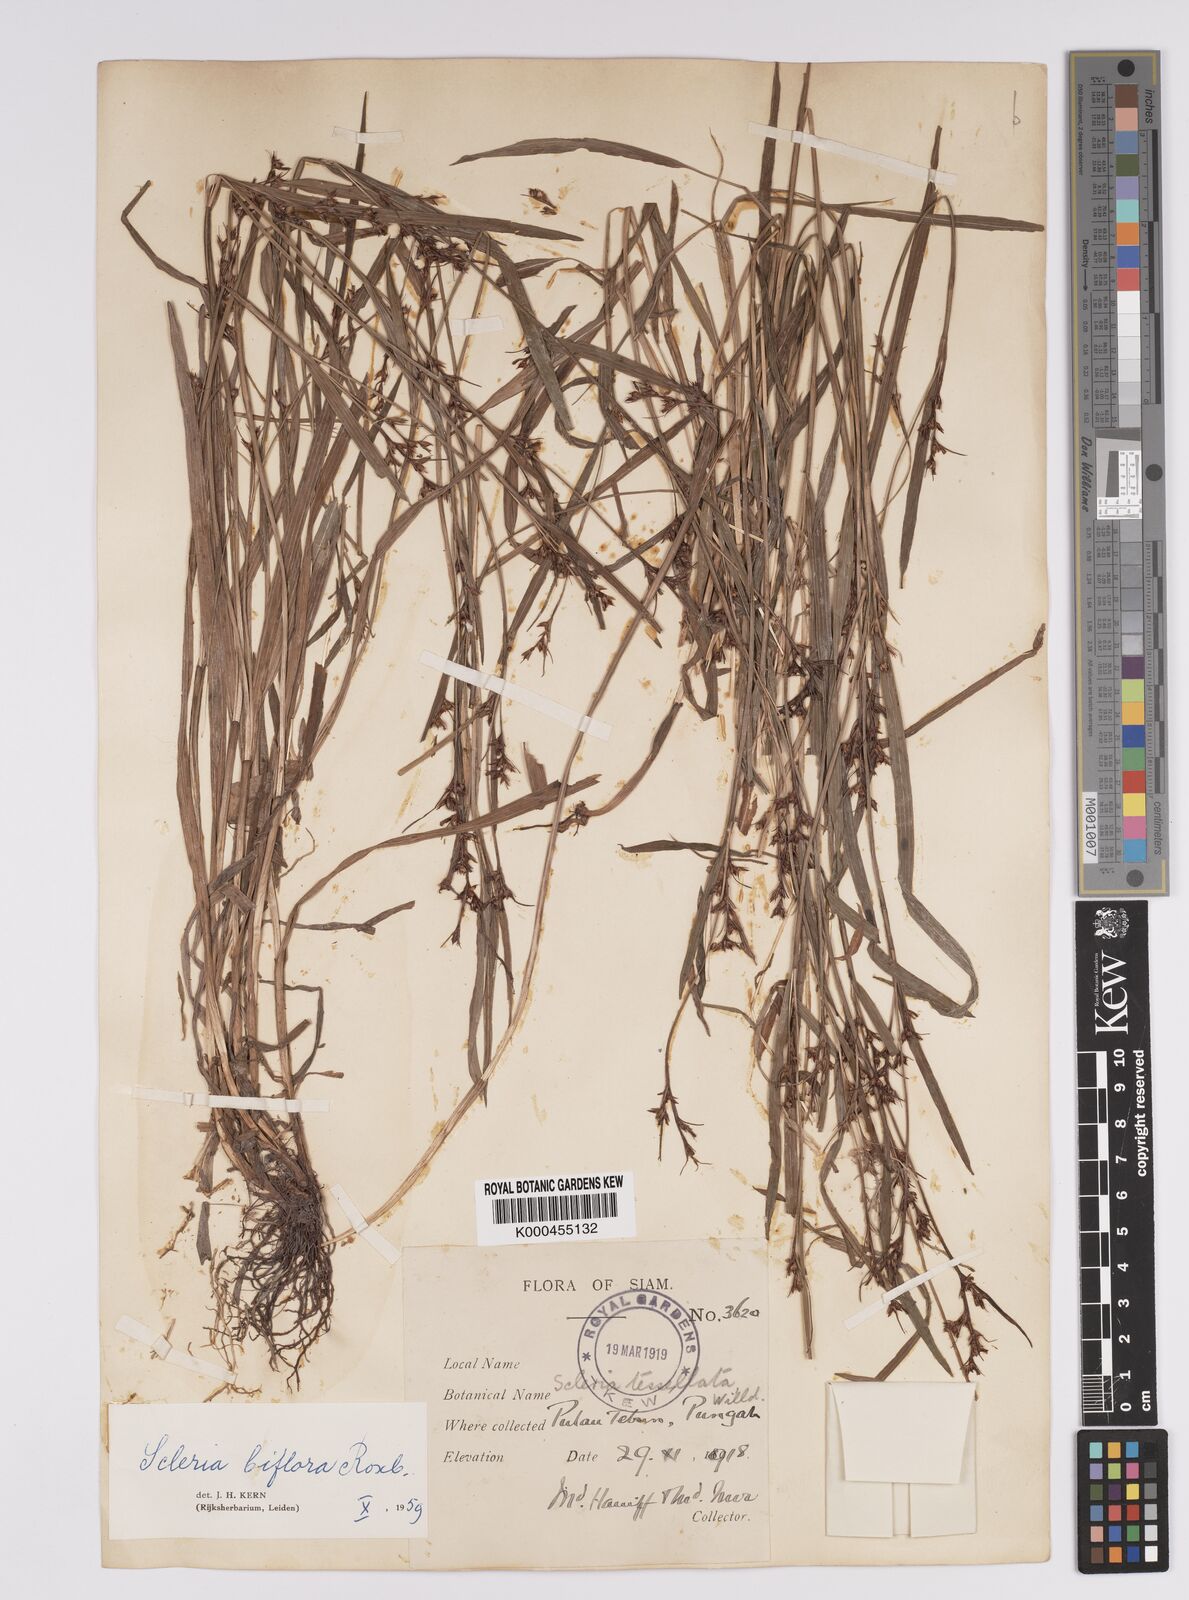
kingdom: Plantae
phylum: Tracheophyta
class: Liliopsida
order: Poales
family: Cyperaceae
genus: Scleria
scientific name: Scleria biflora
